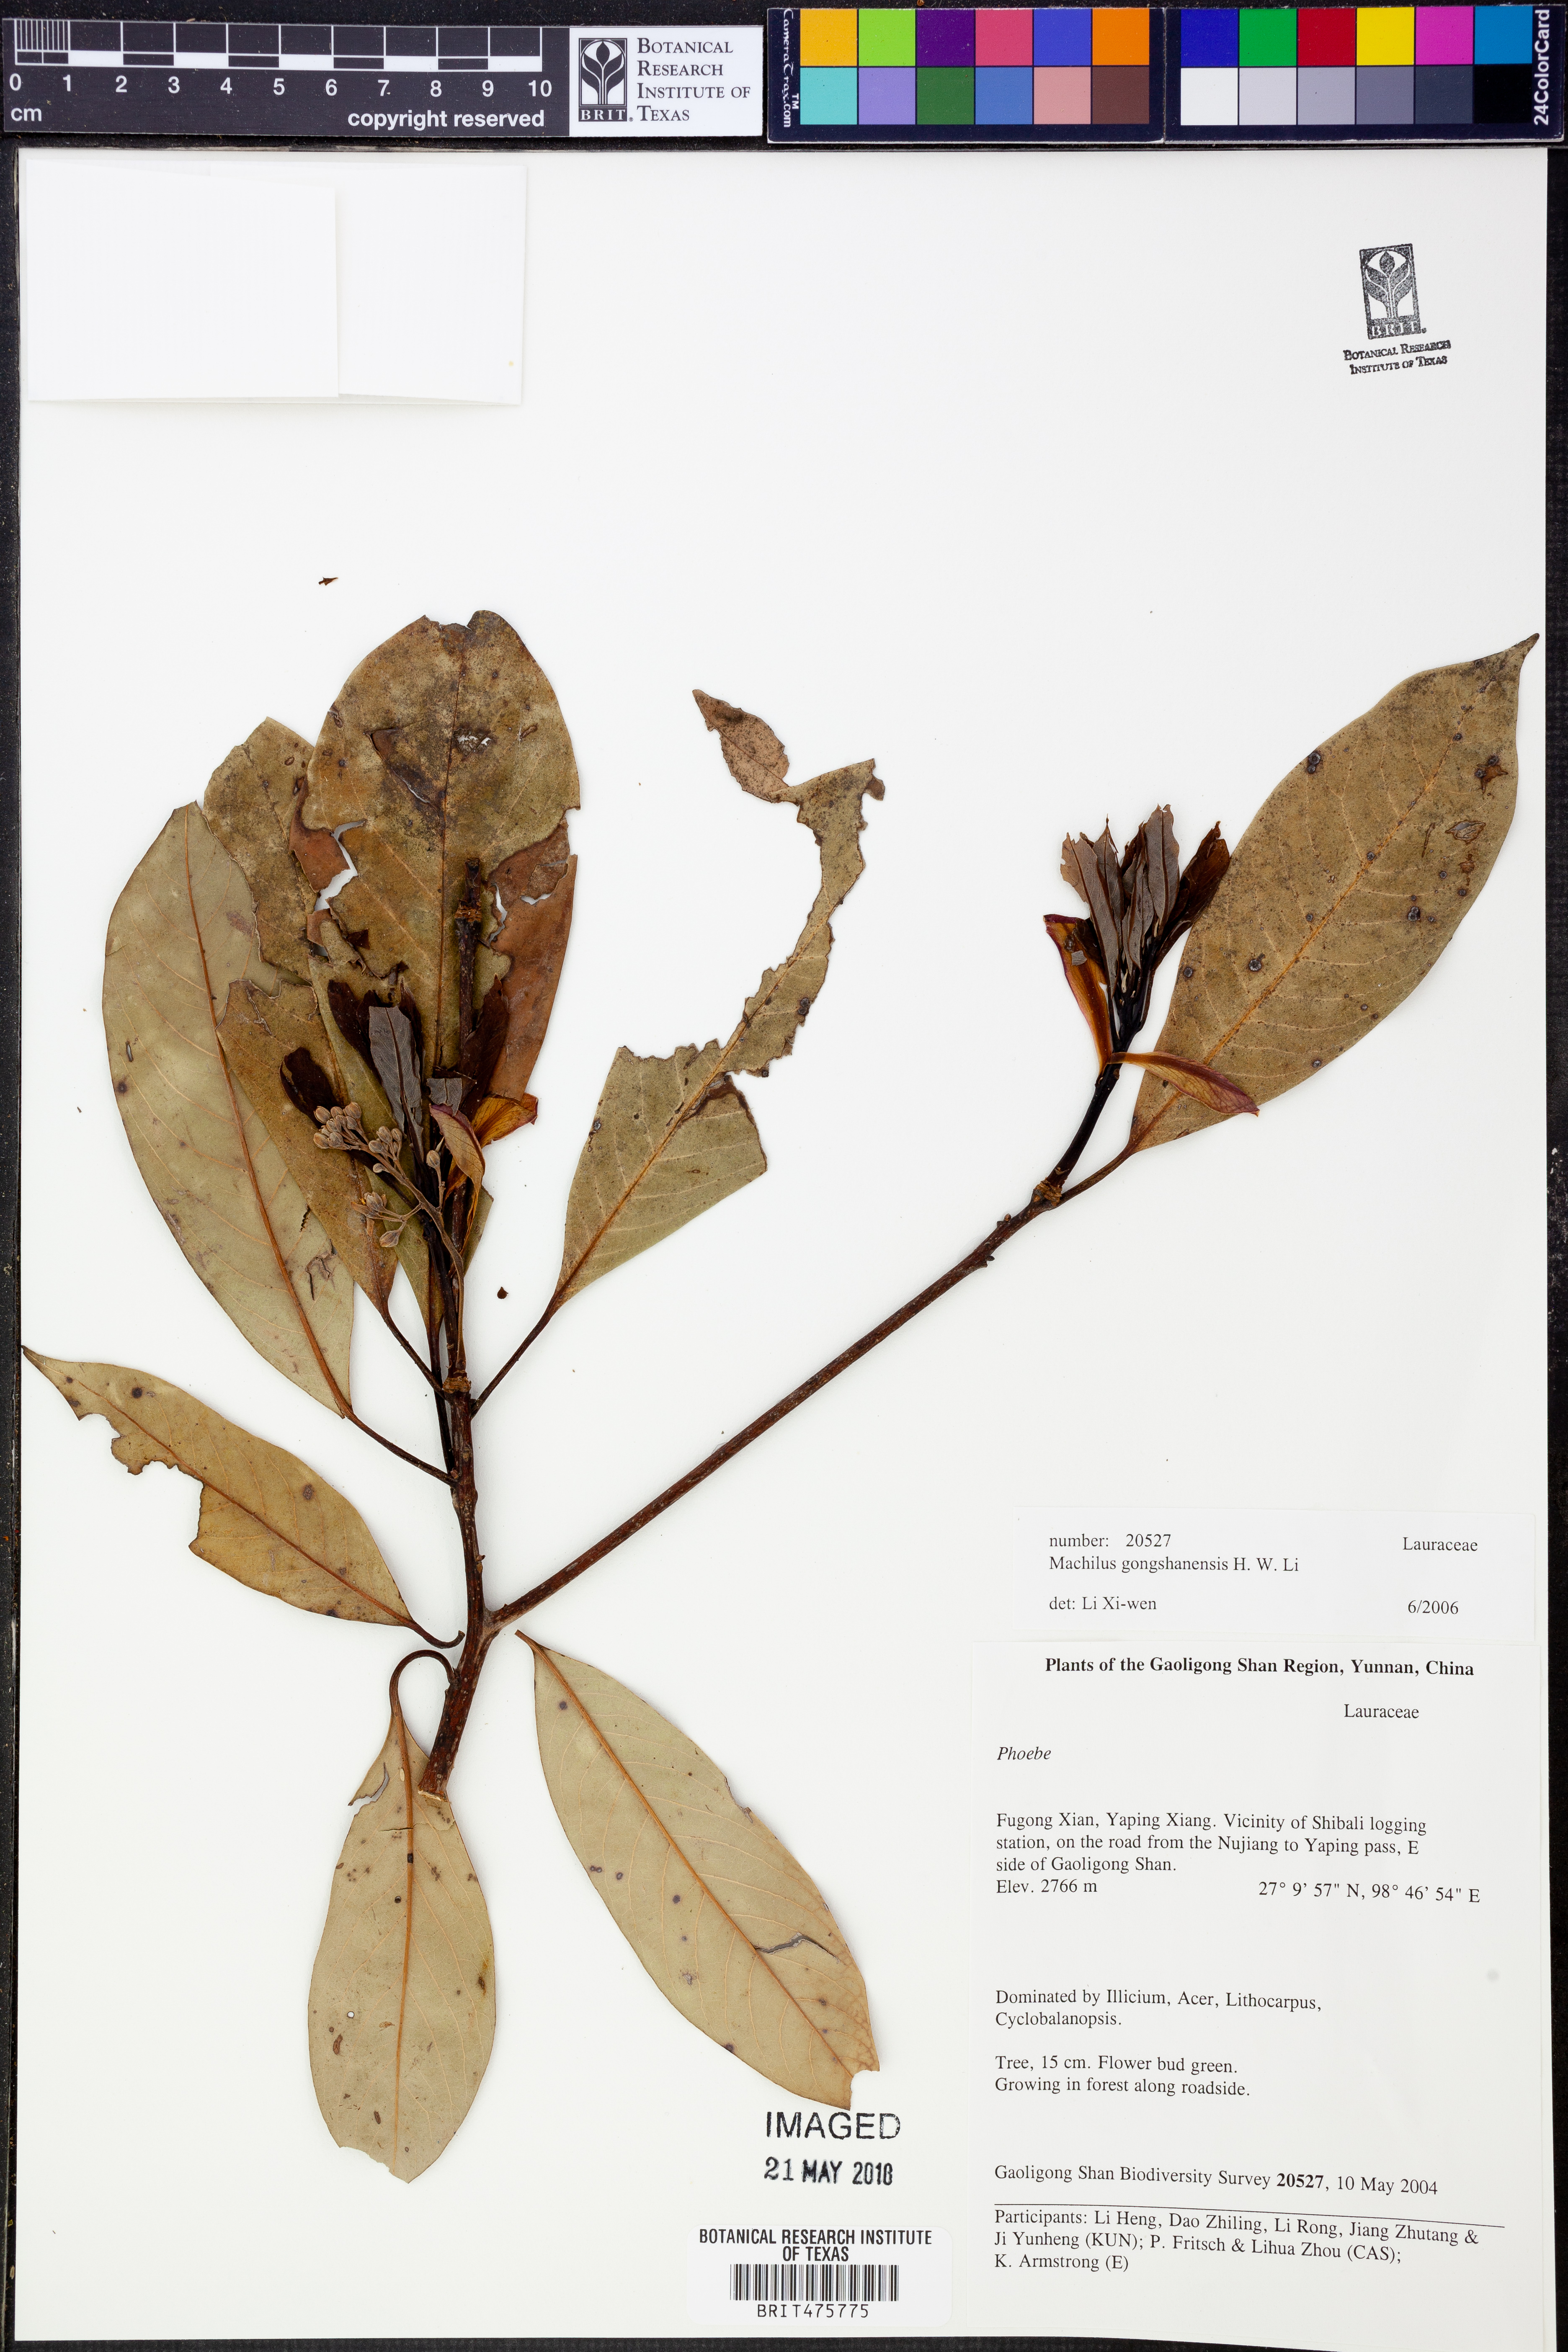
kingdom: Plantae
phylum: Tracheophyta
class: Magnoliopsida
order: Laurales
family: Lauraceae
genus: Machilus
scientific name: Machilus gongshanensis
